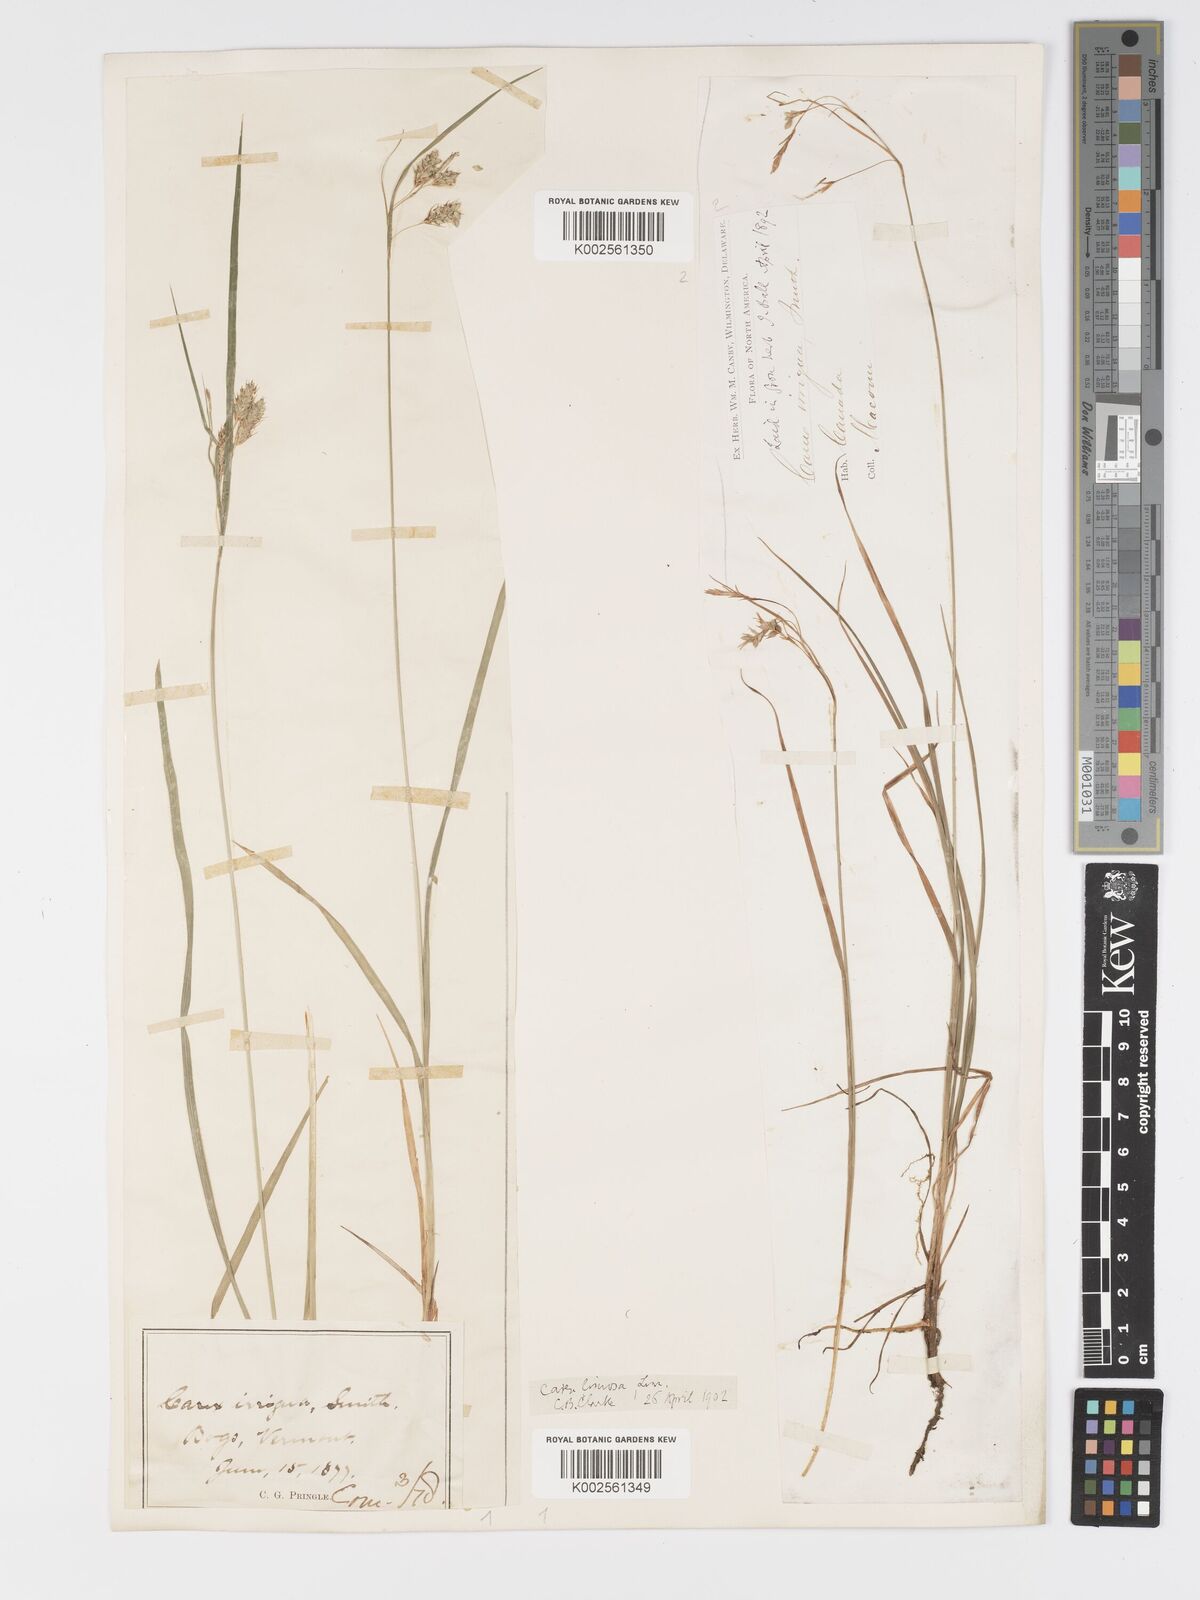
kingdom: Plantae
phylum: Tracheophyta
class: Liliopsida
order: Poales
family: Cyperaceae
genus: Carex
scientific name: Carex magellanica
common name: Bog sedge
